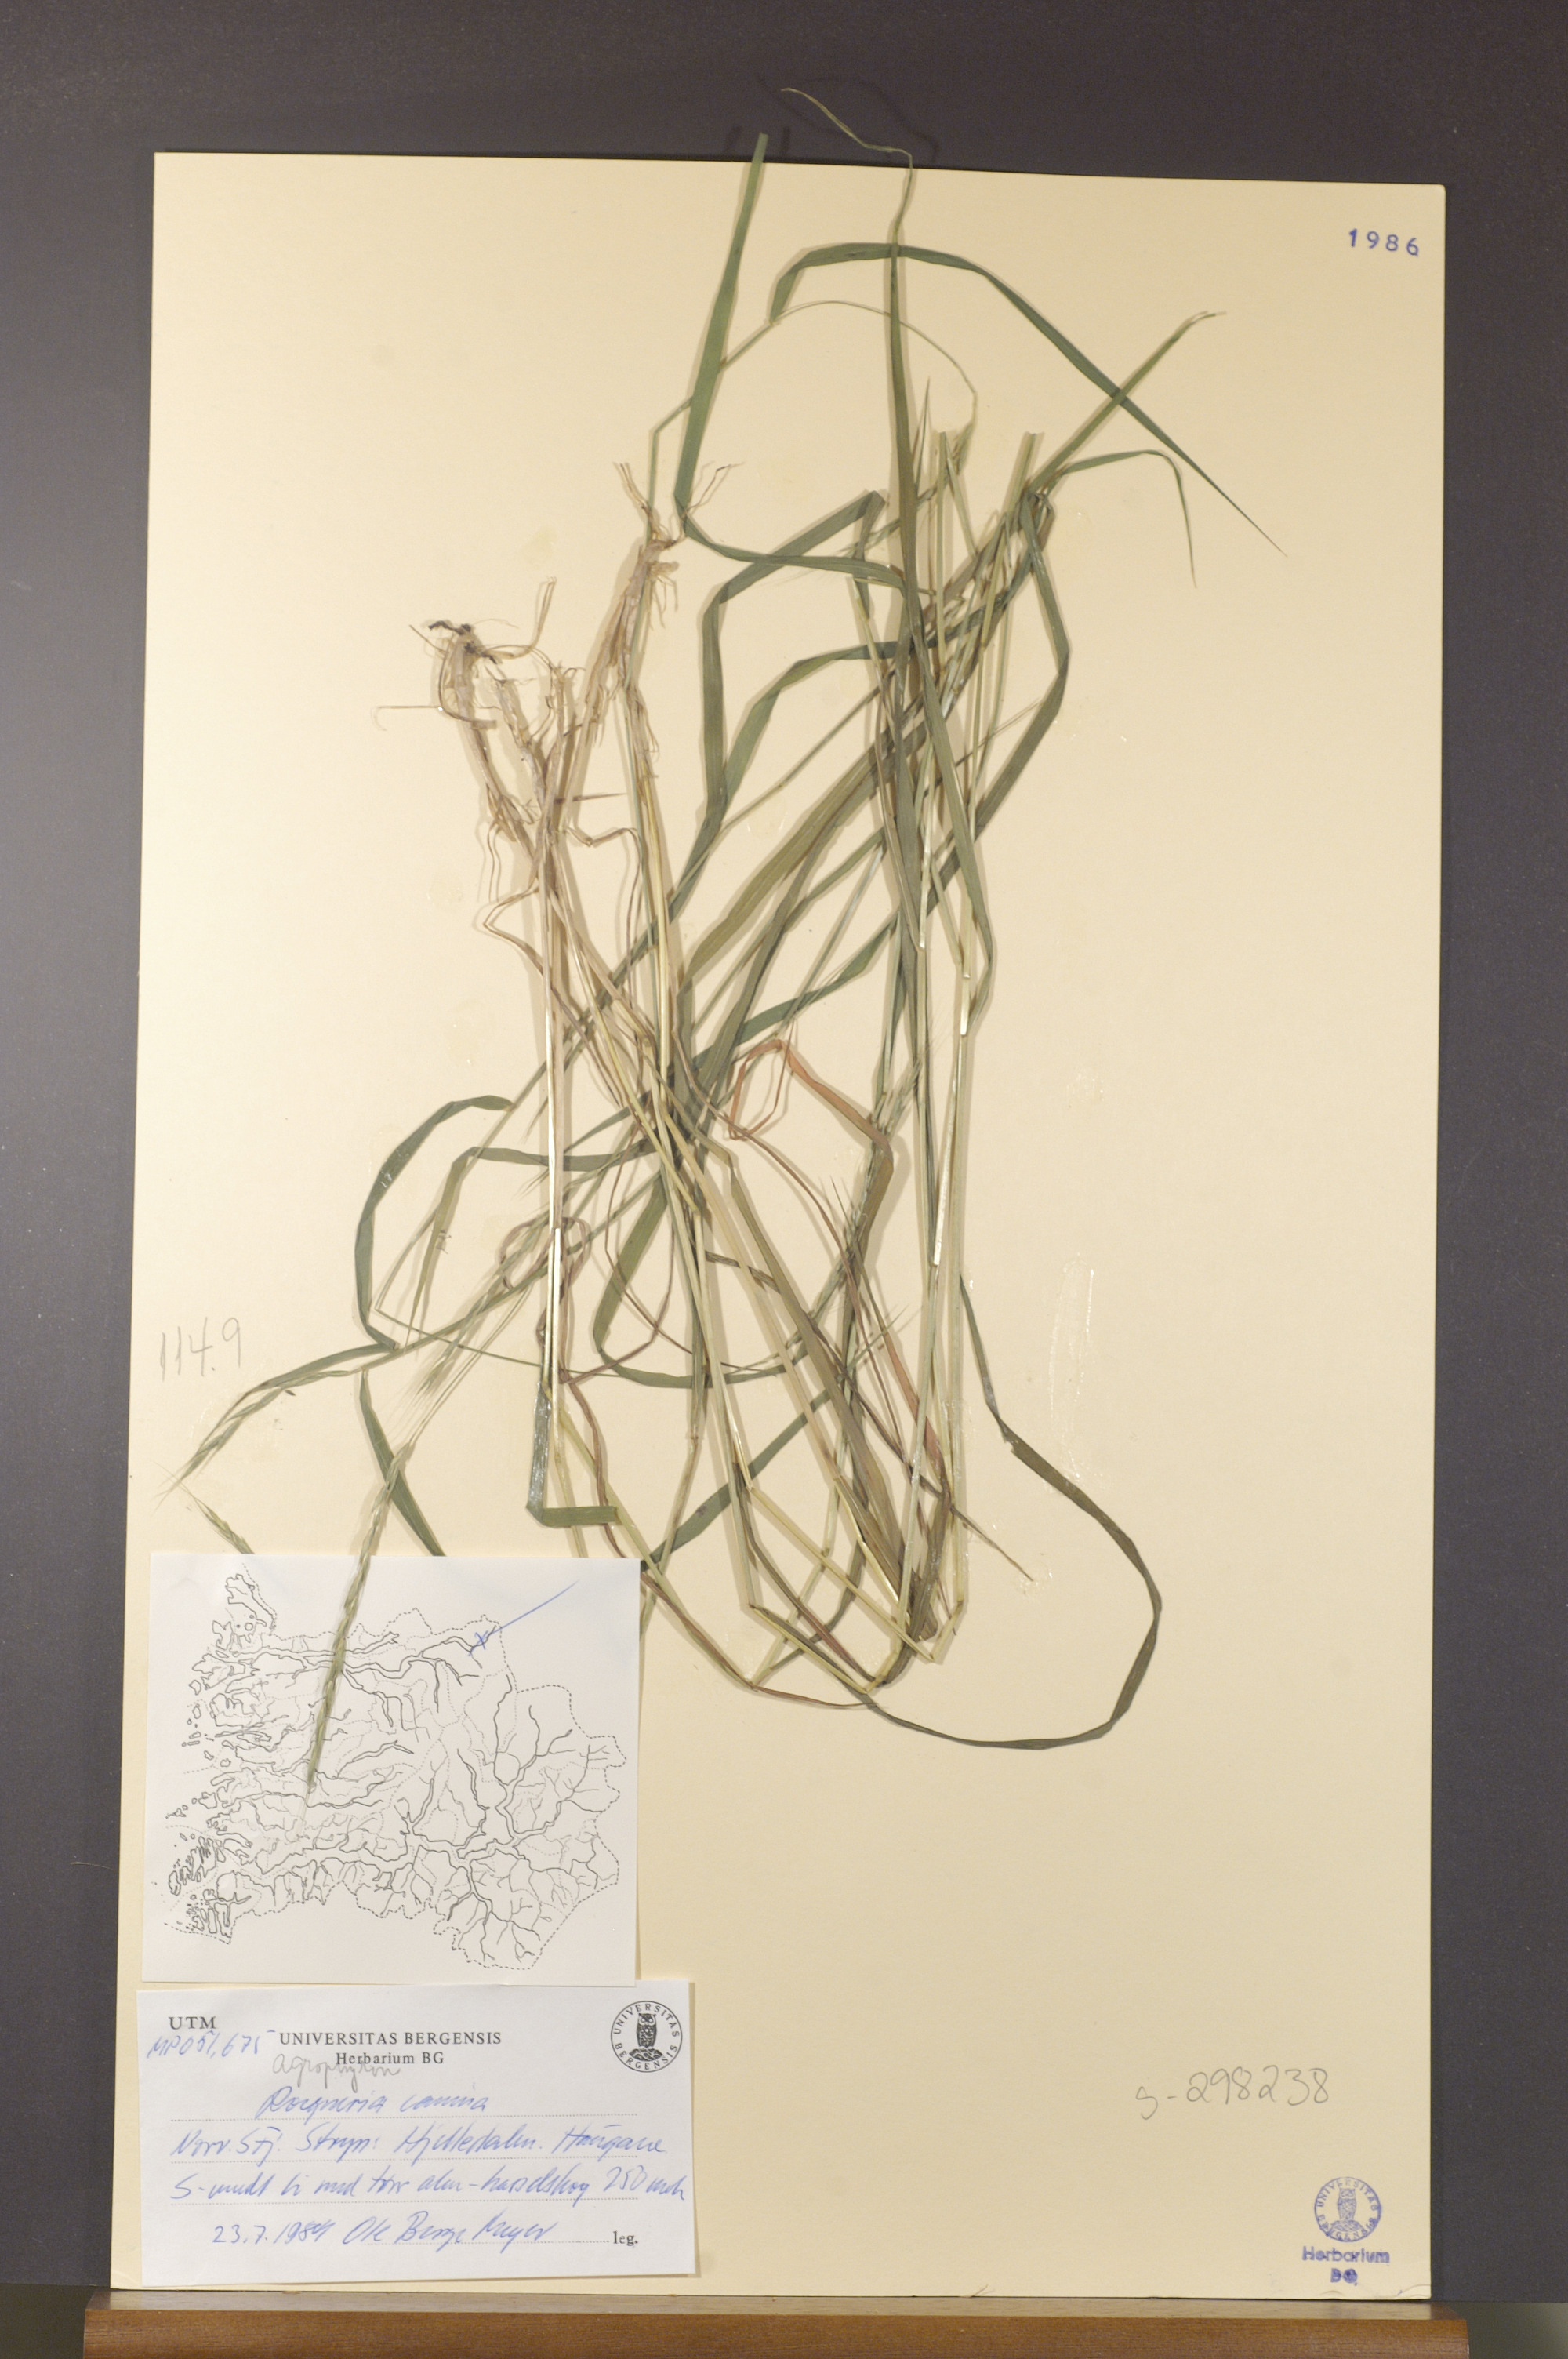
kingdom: Plantae
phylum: Tracheophyta
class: Liliopsida
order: Poales
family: Poaceae
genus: Elymus
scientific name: Elymus caninus
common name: Bearded couch
